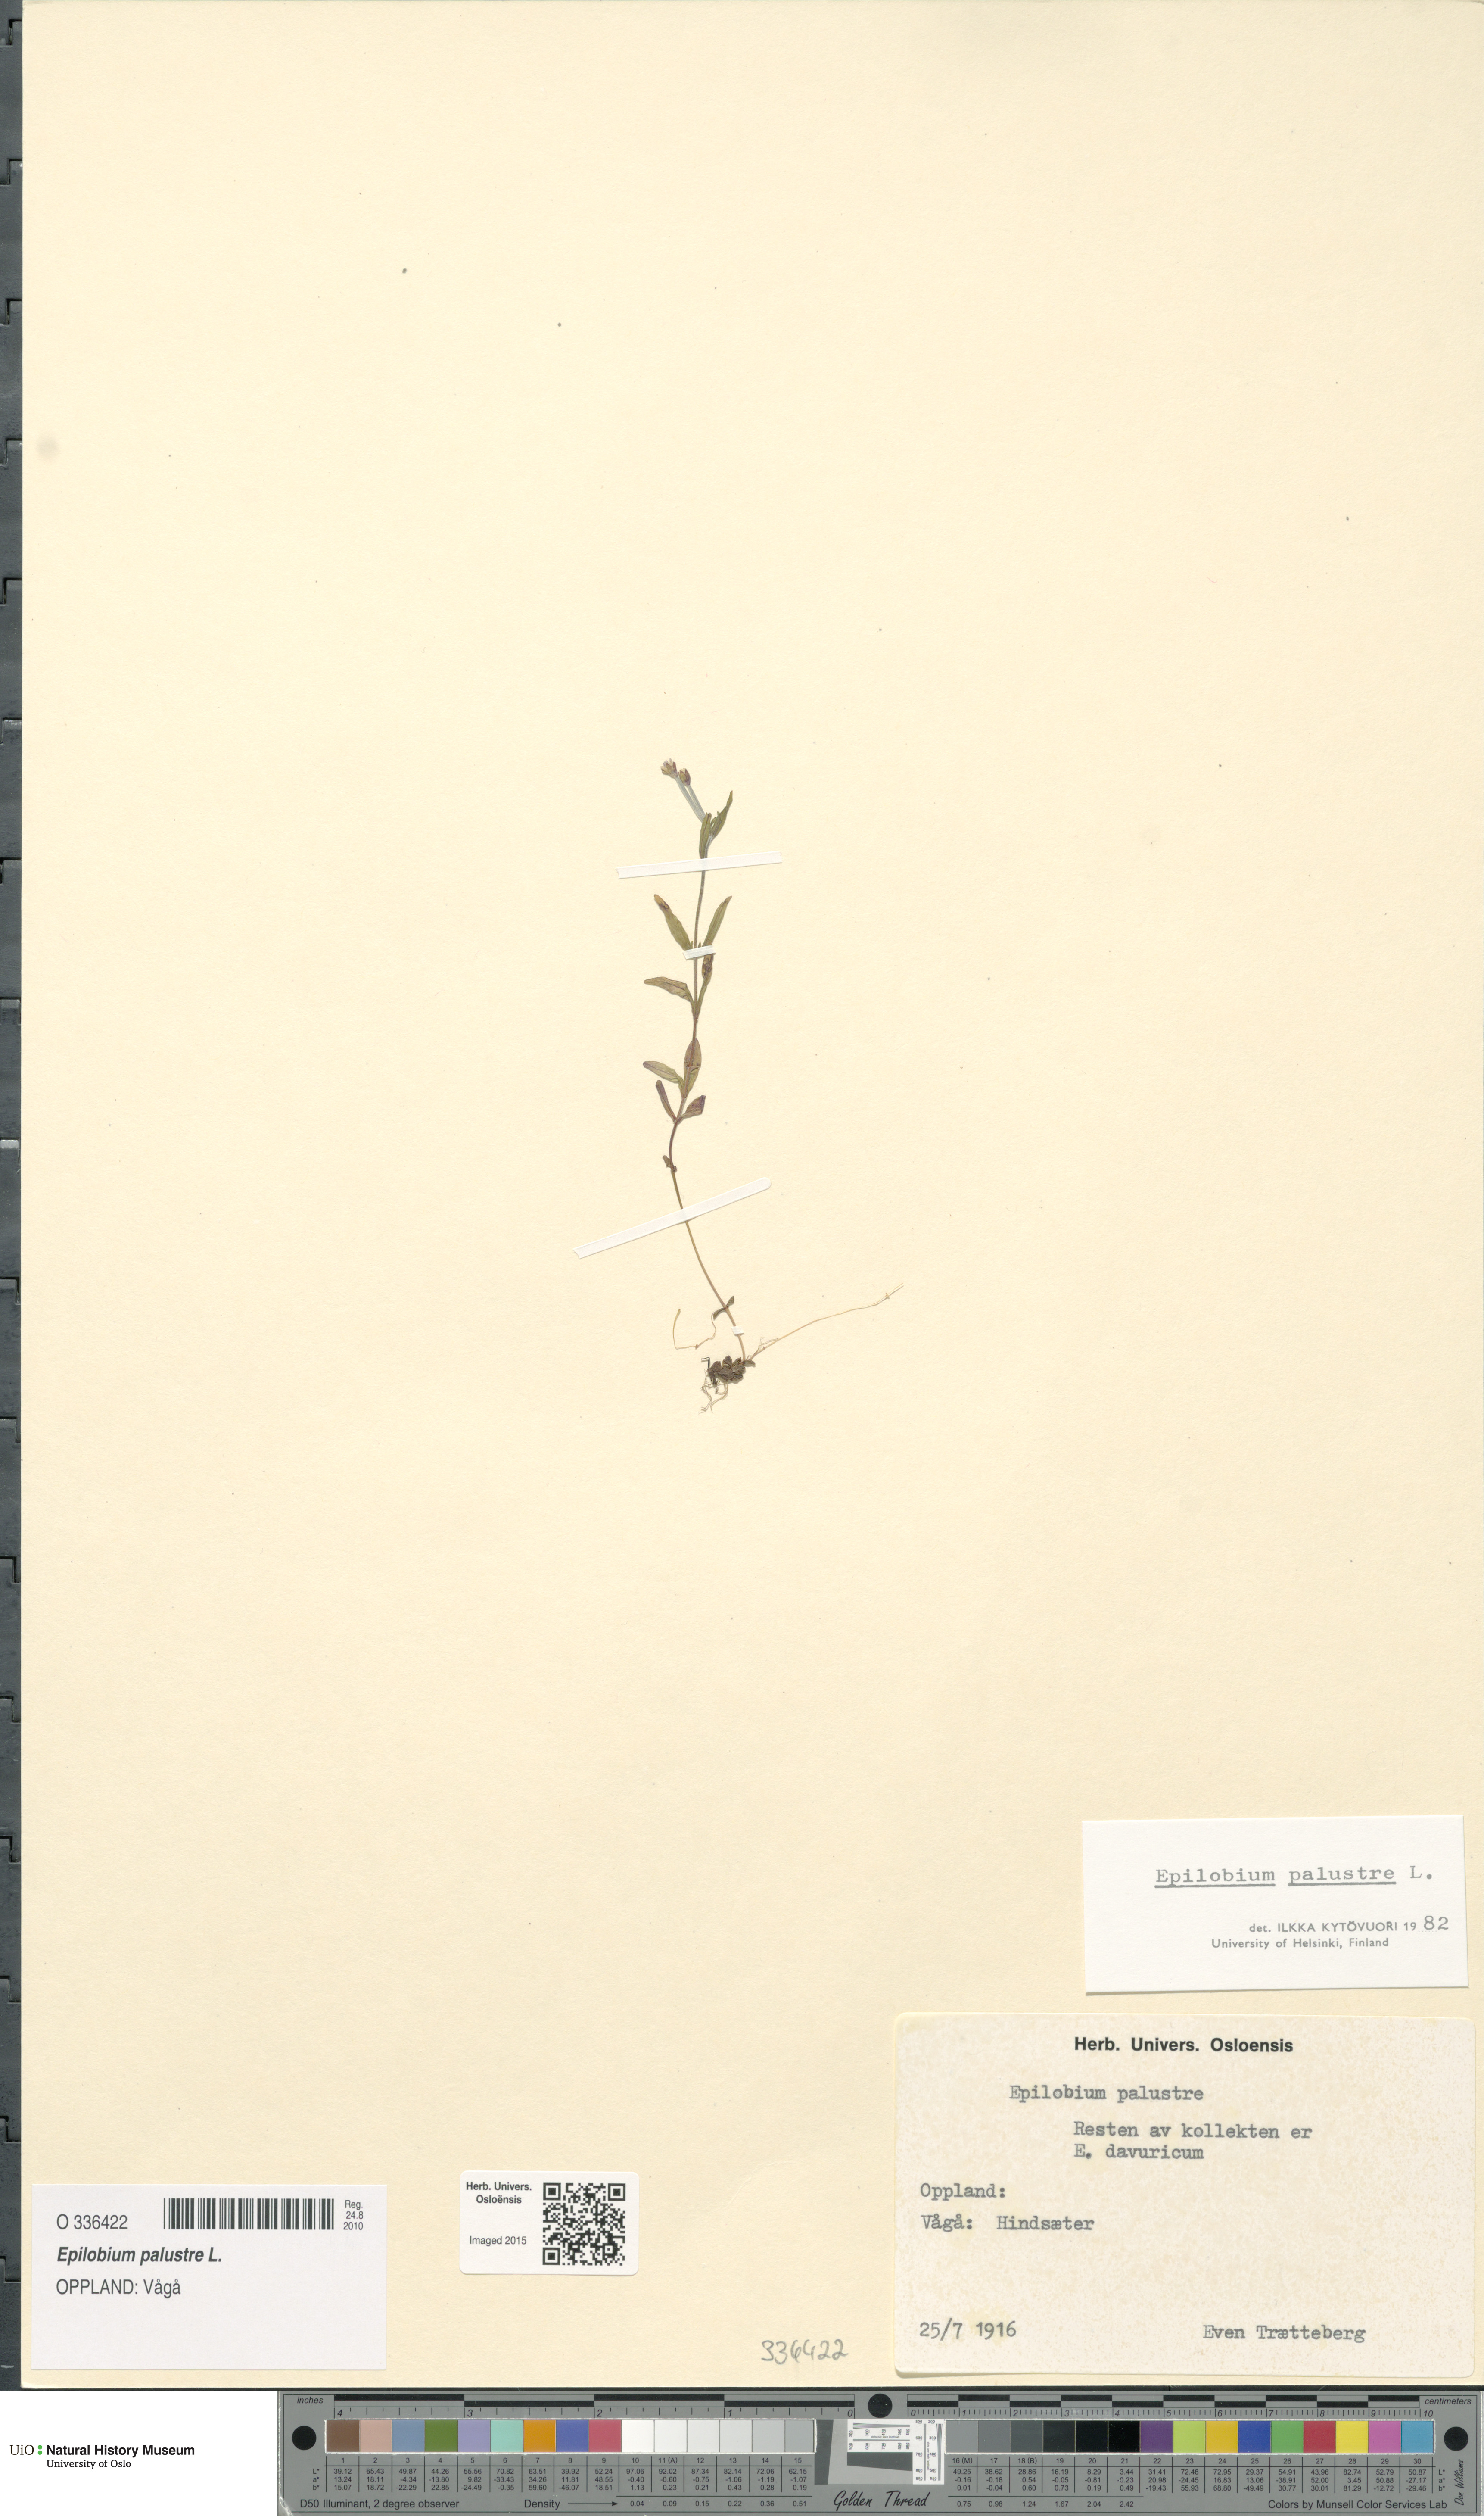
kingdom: Plantae
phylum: Tracheophyta
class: Magnoliopsida
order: Myrtales
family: Onagraceae
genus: Epilobium
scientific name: Epilobium palustre
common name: Marsh willowherb
